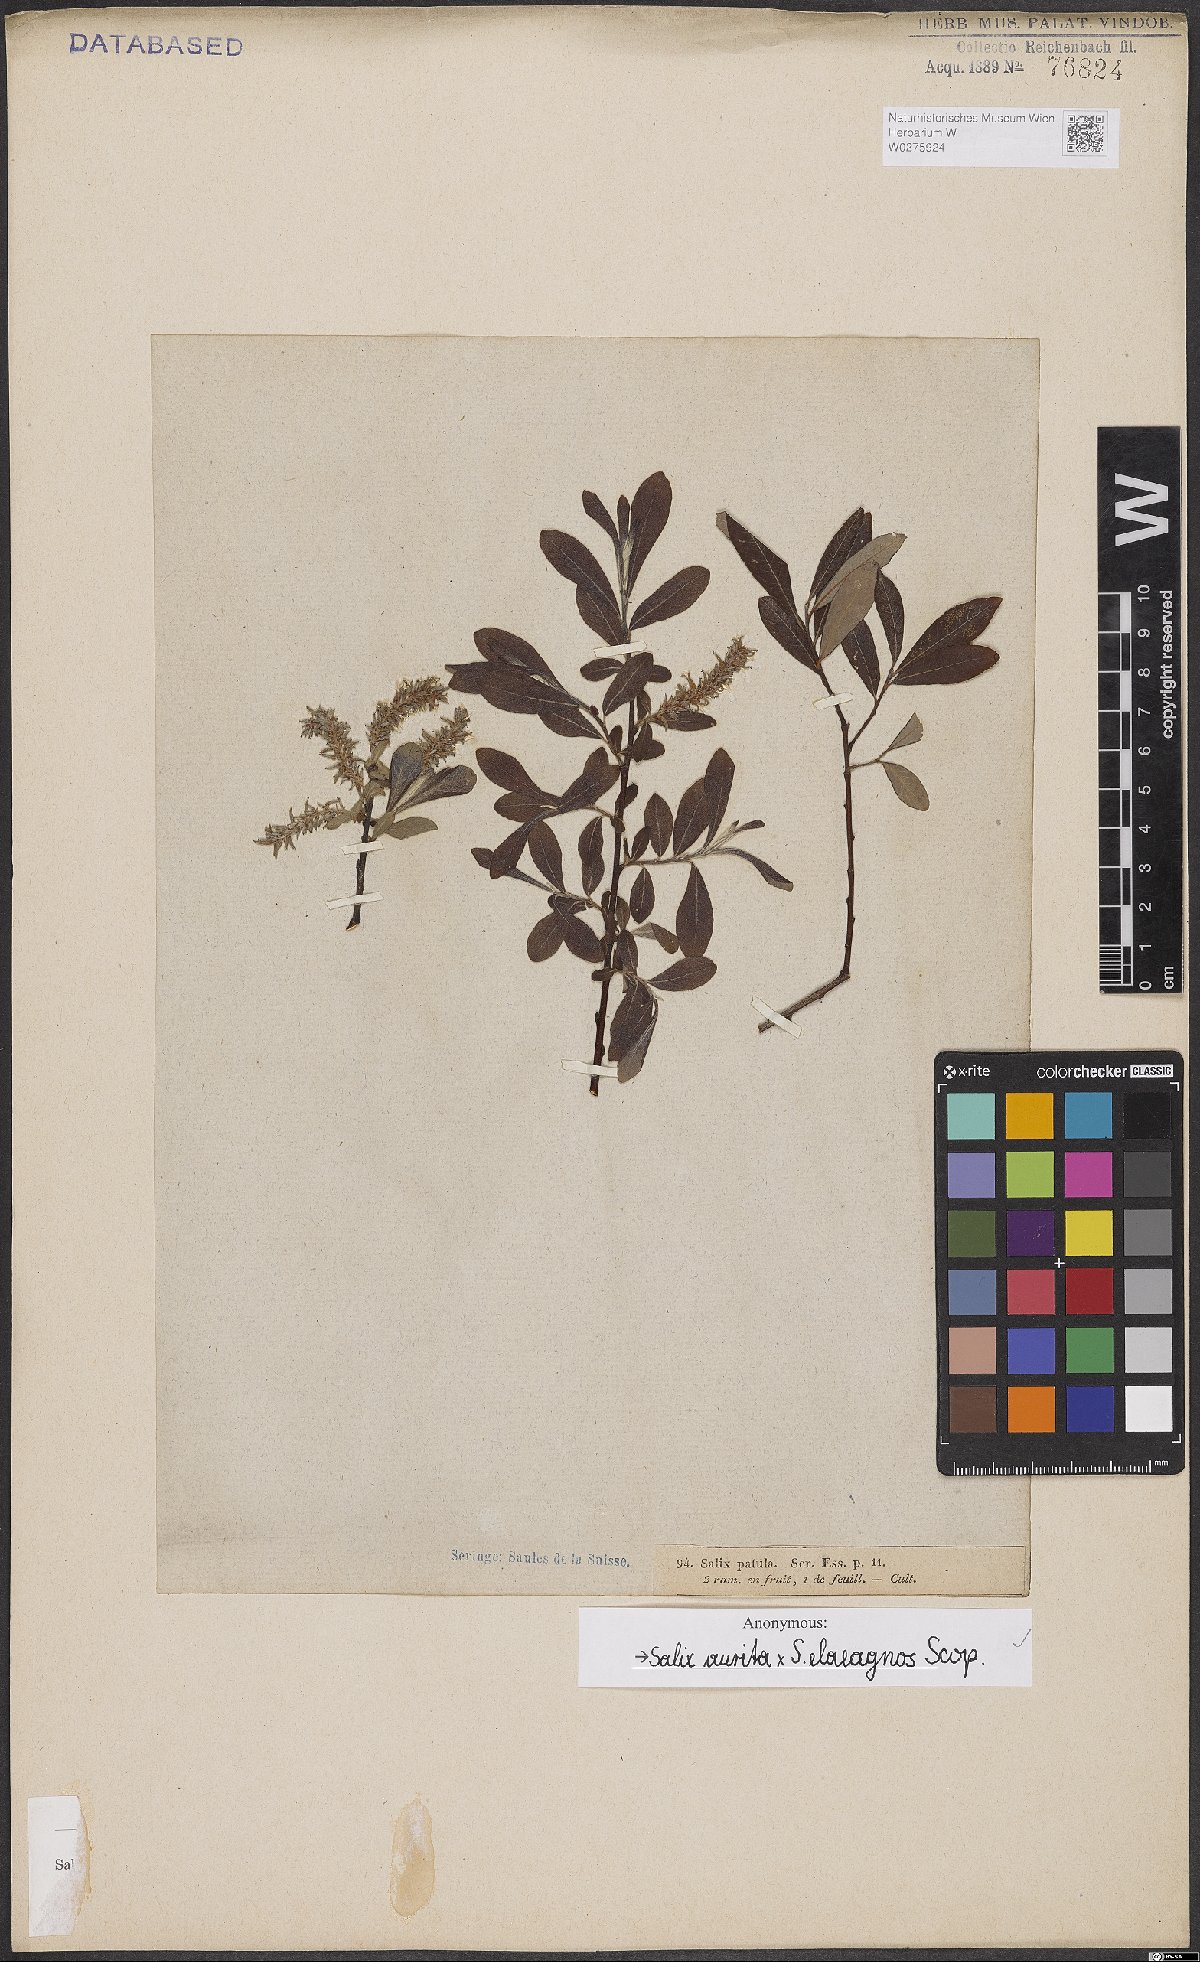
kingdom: Plantae
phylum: Tracheophyta
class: Magnoliopsida
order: Malpighiales
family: Salicaceae
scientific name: Salicaceae
